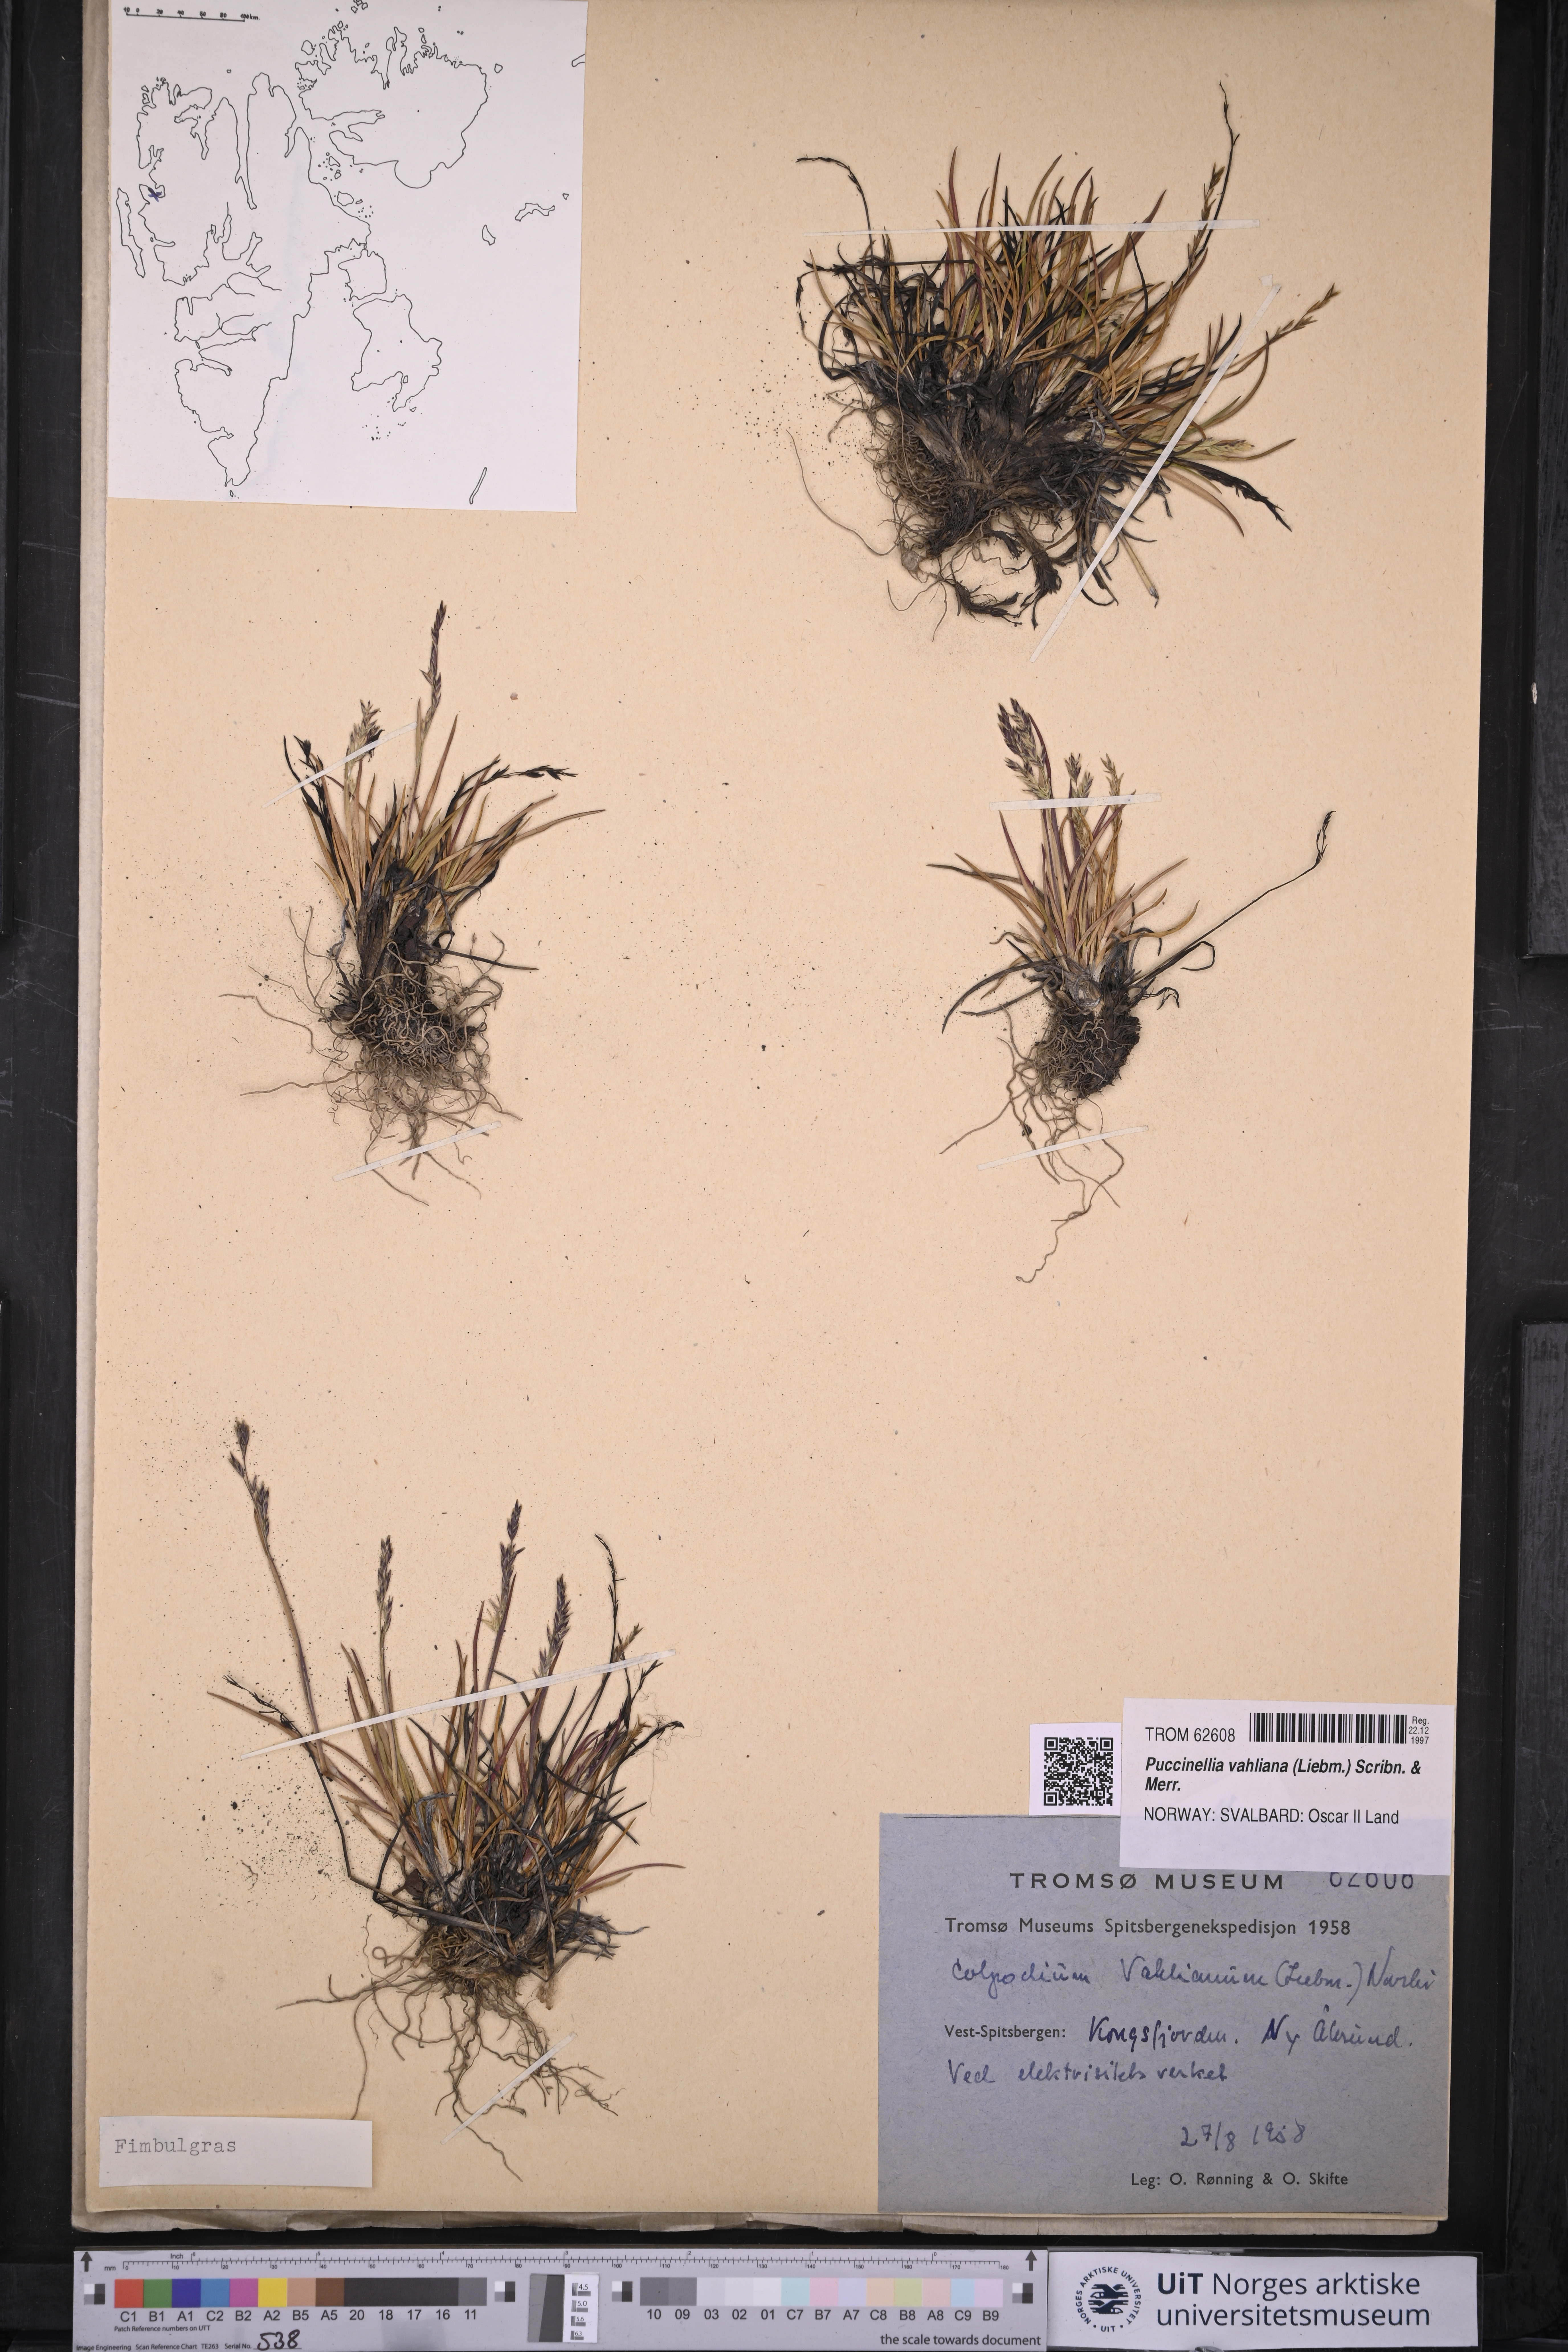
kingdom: Plantae
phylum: Tracheophyta
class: Liliopsida
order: Poales
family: Poaceae
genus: Puccinellia
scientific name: Puccinellia vahliana
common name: Vahl's alkaligrass
